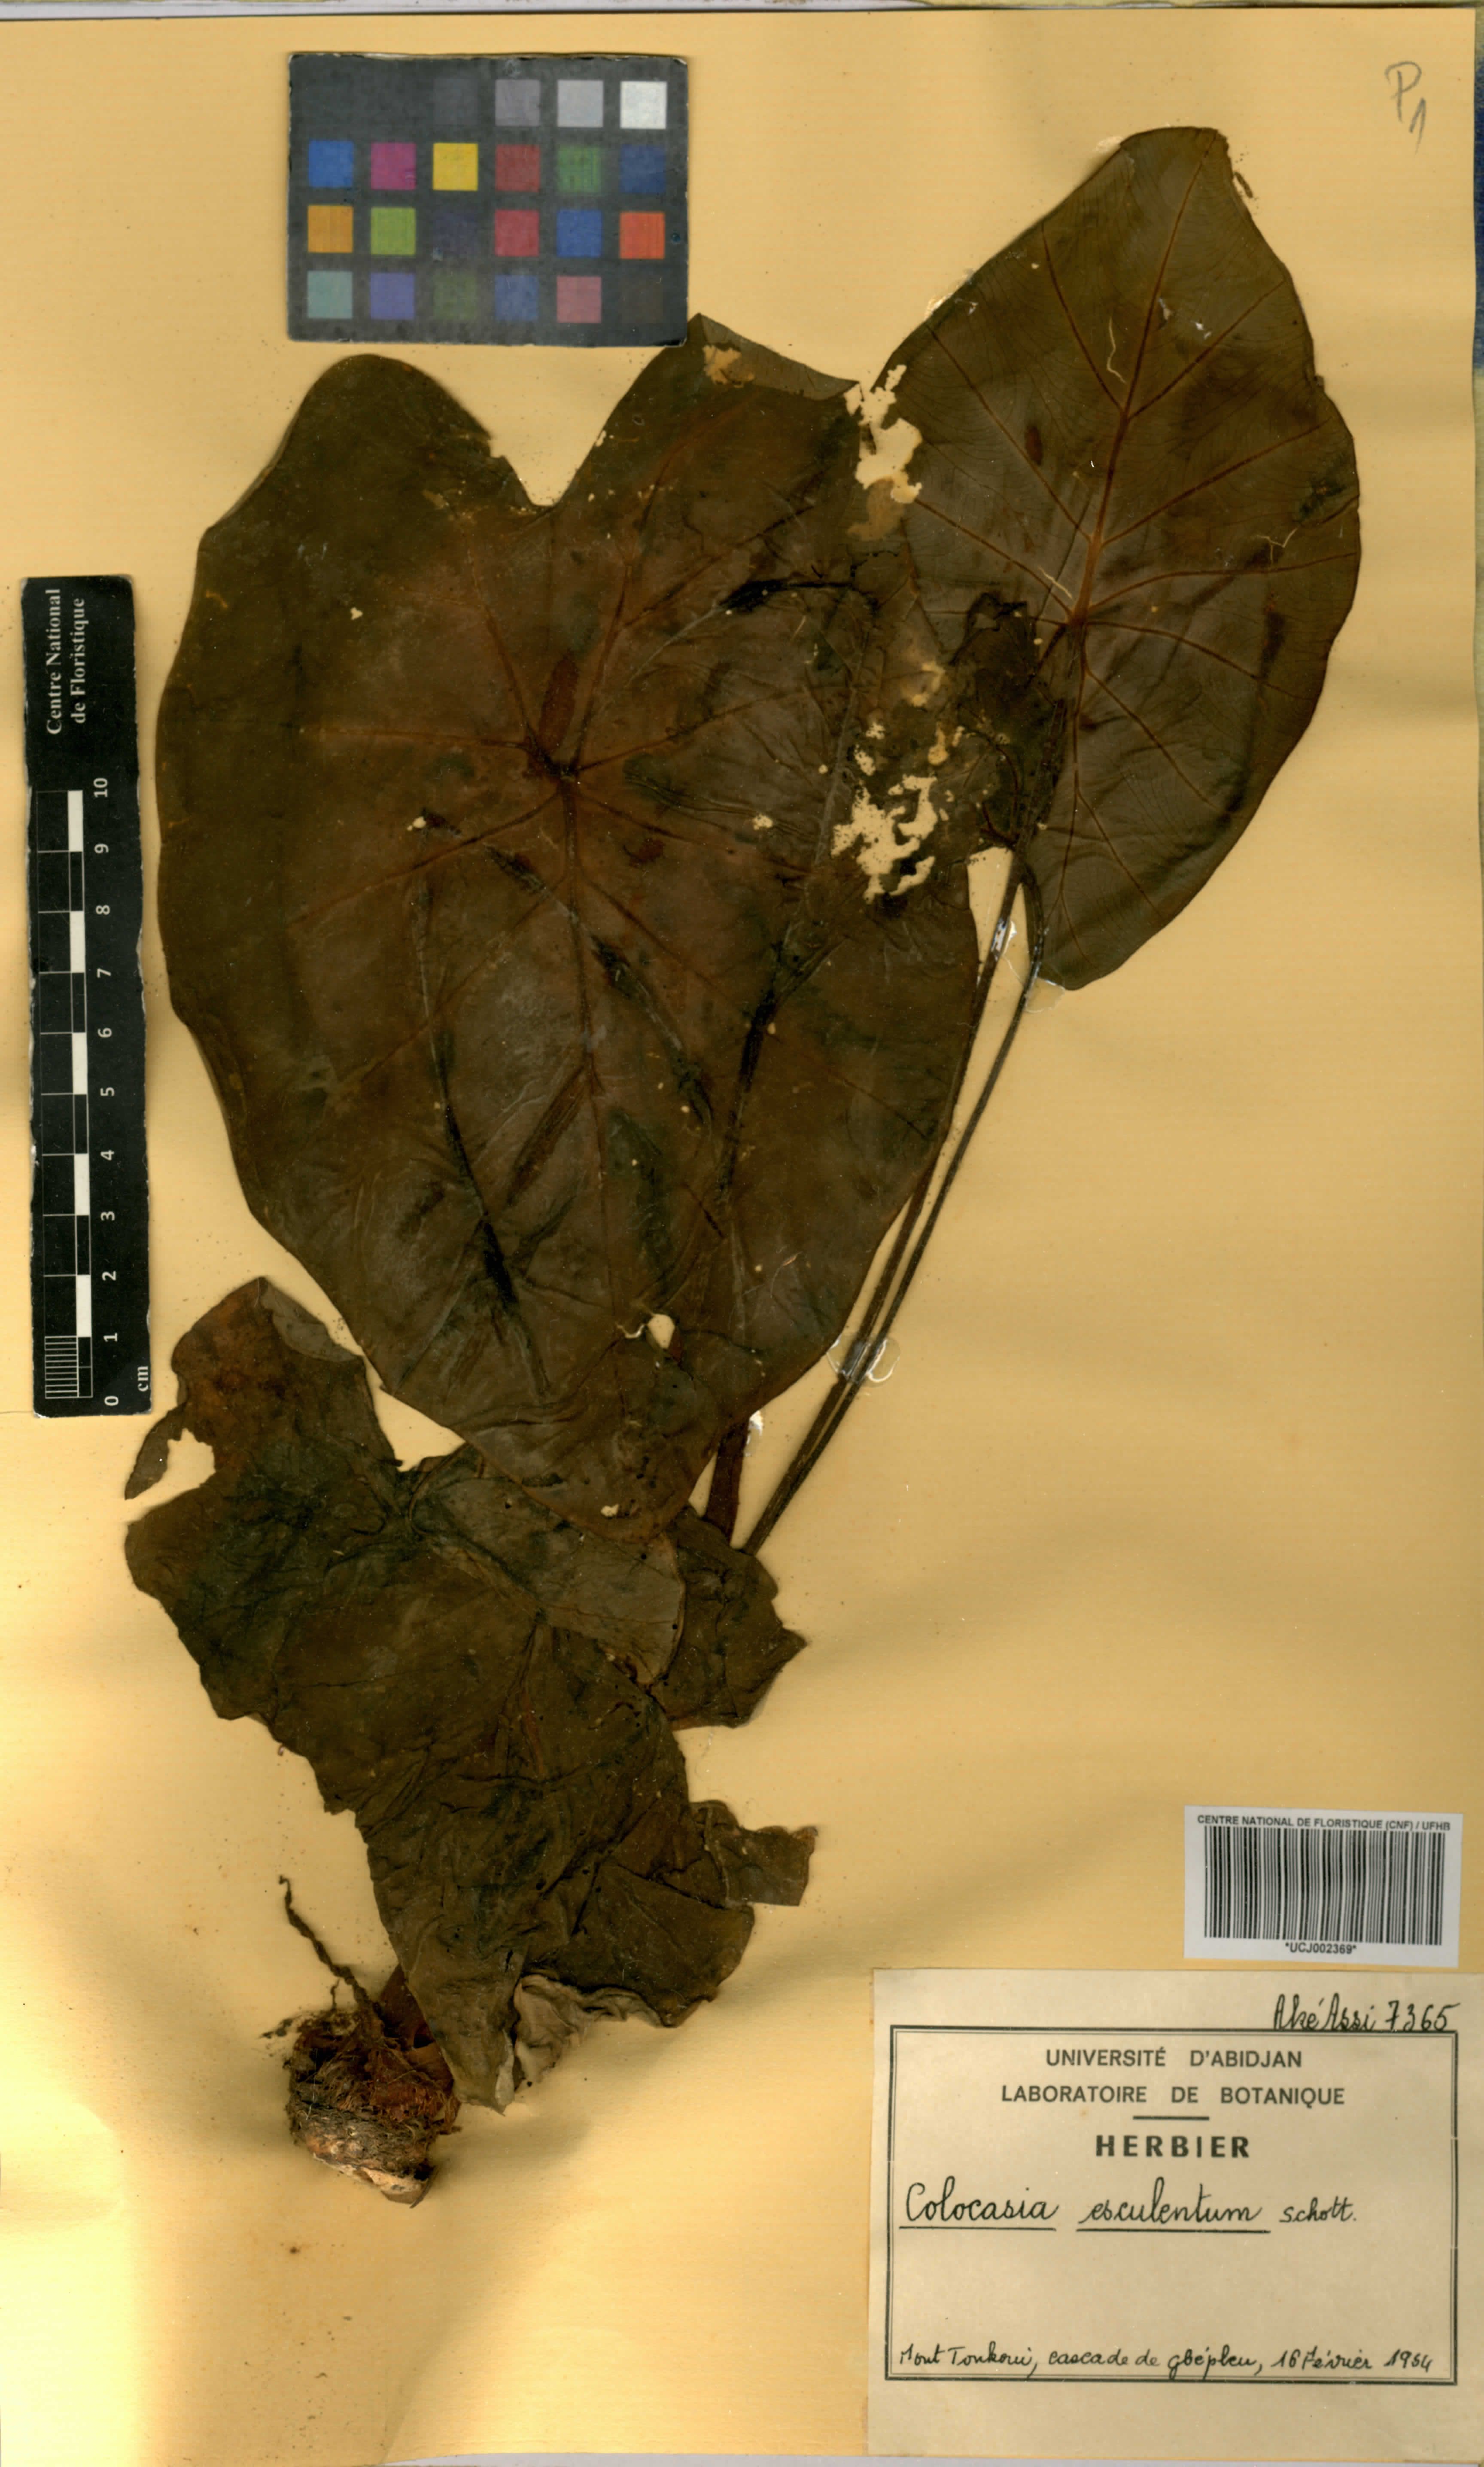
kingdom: Plantae
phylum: Tracheophyta
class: Liliopsida
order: Alismatales
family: Araceae
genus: Colocasia
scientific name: Colocasia esculenta
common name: Taro
